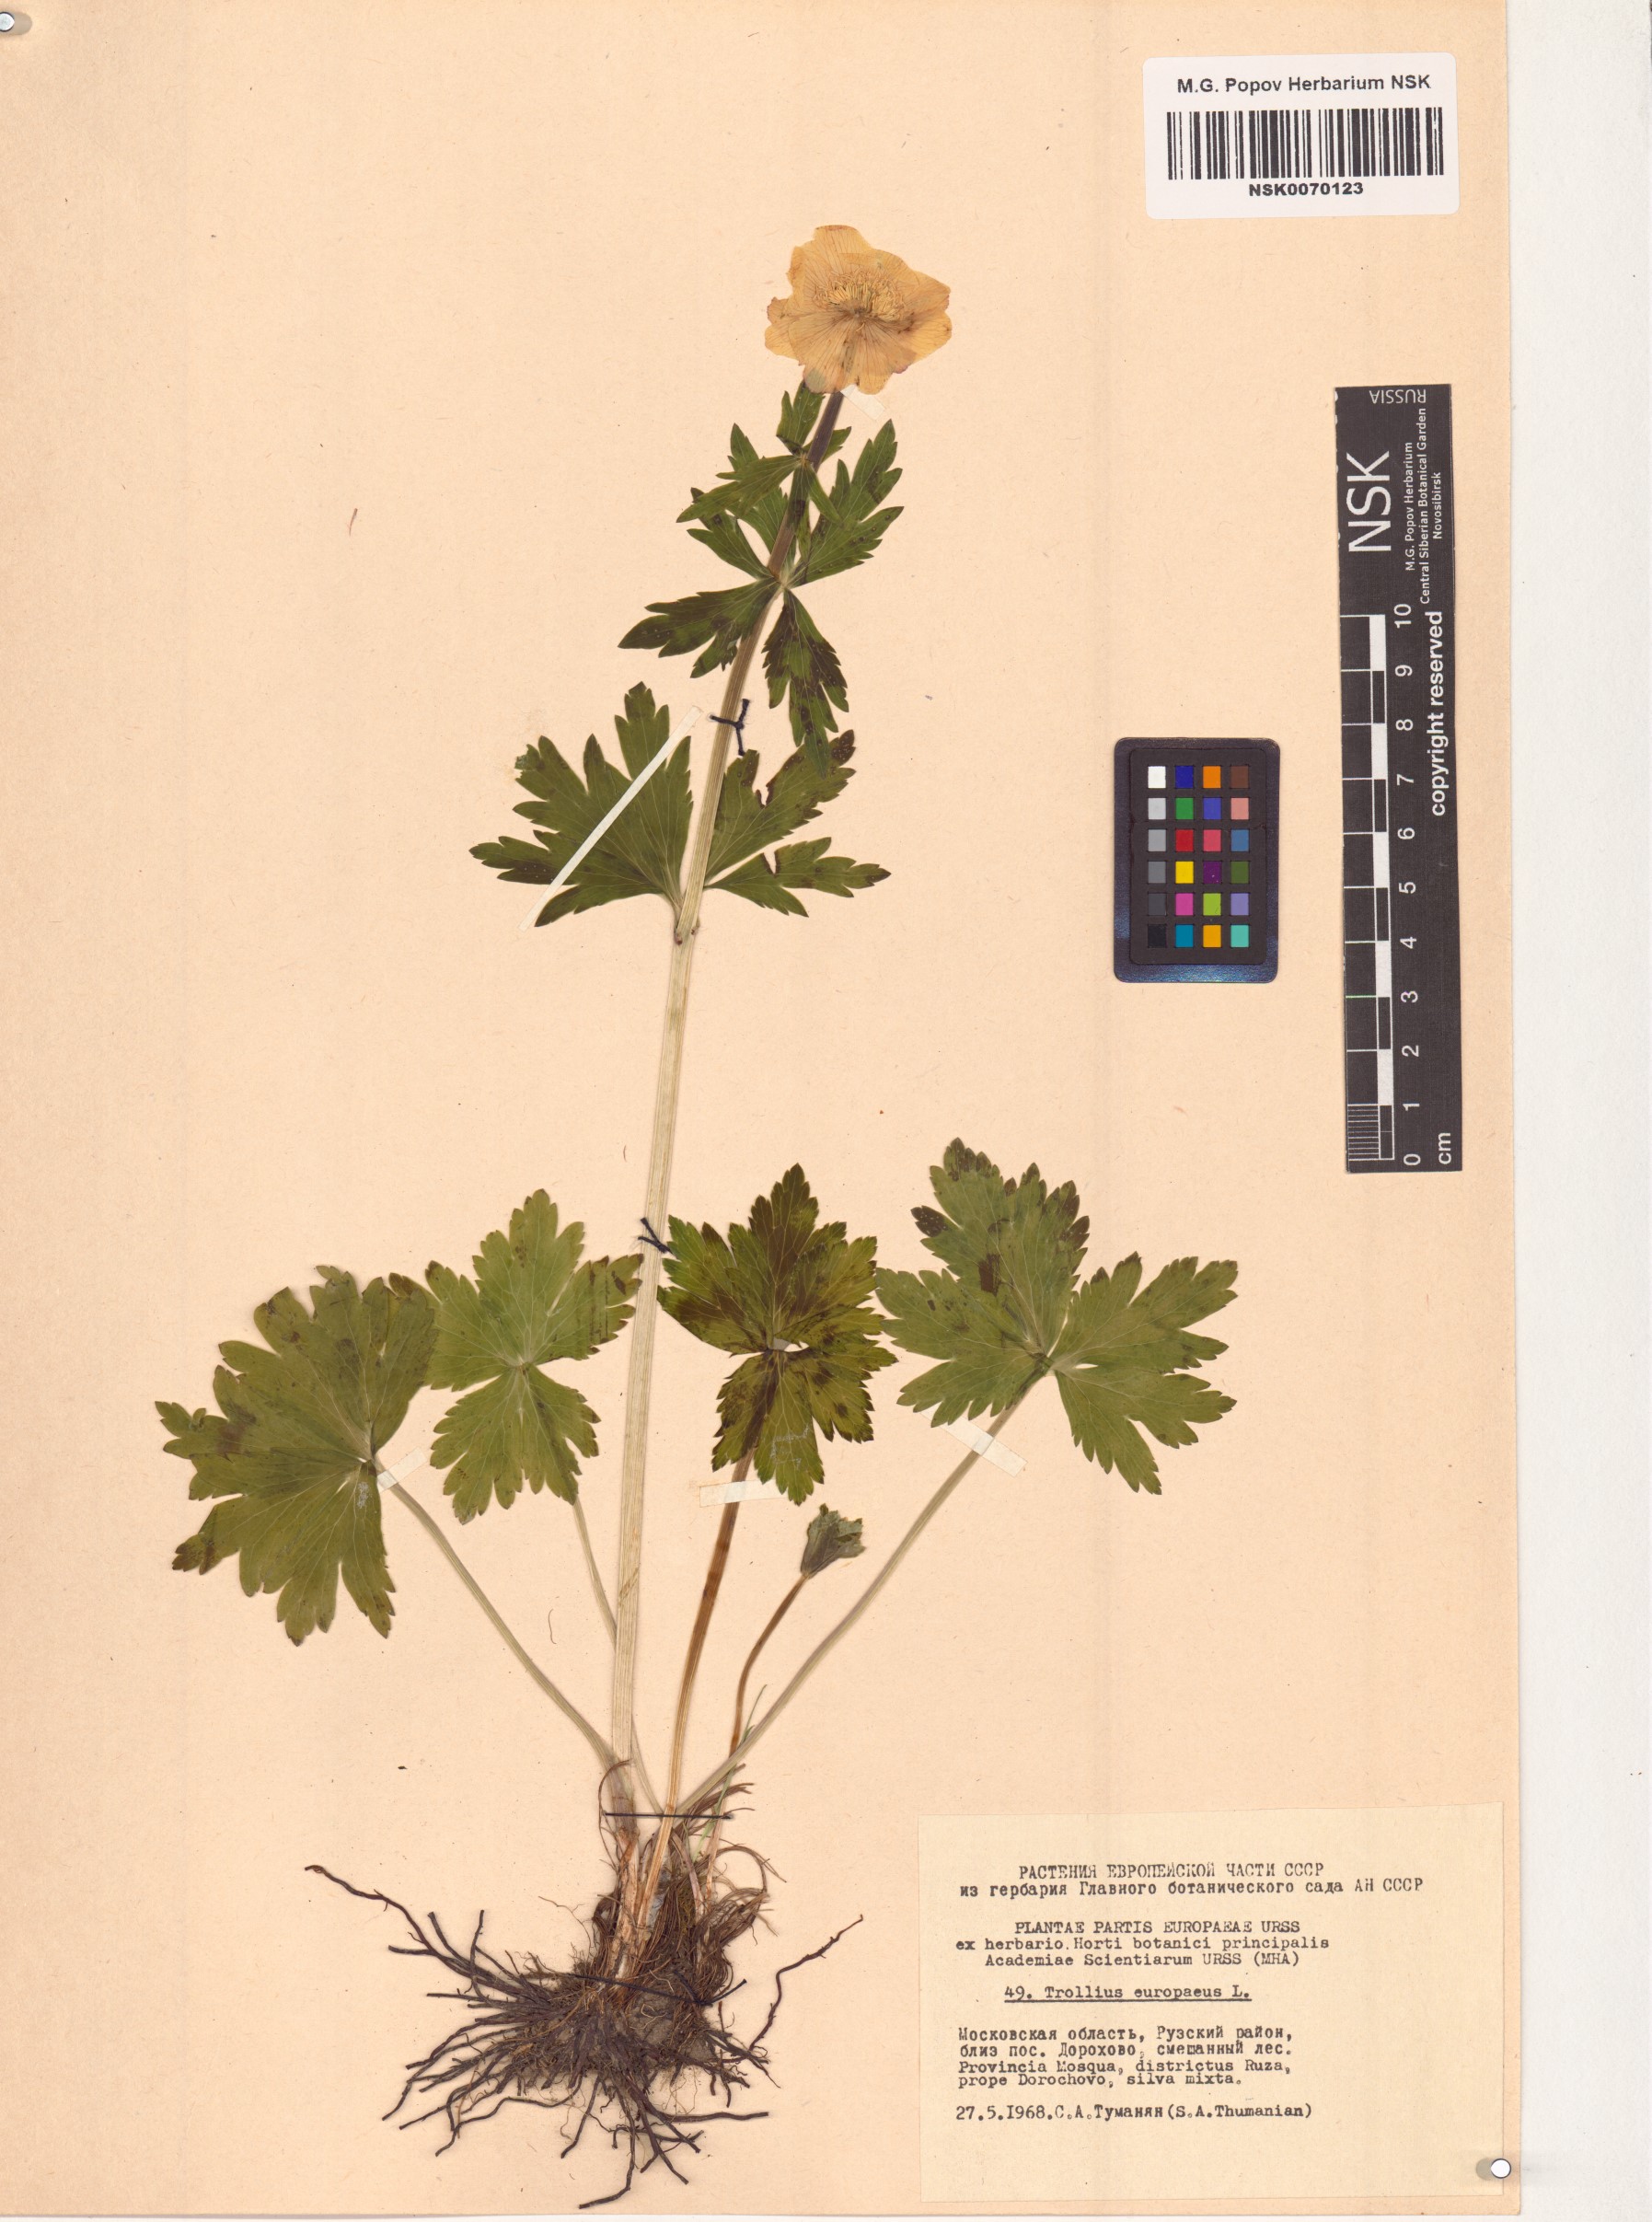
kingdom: Plantae
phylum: Tracheophyta
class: Magnoliopsida
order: Ranunculales
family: Ranunculaceae
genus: Trollius
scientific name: Trollius europaeus
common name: European globeflower
